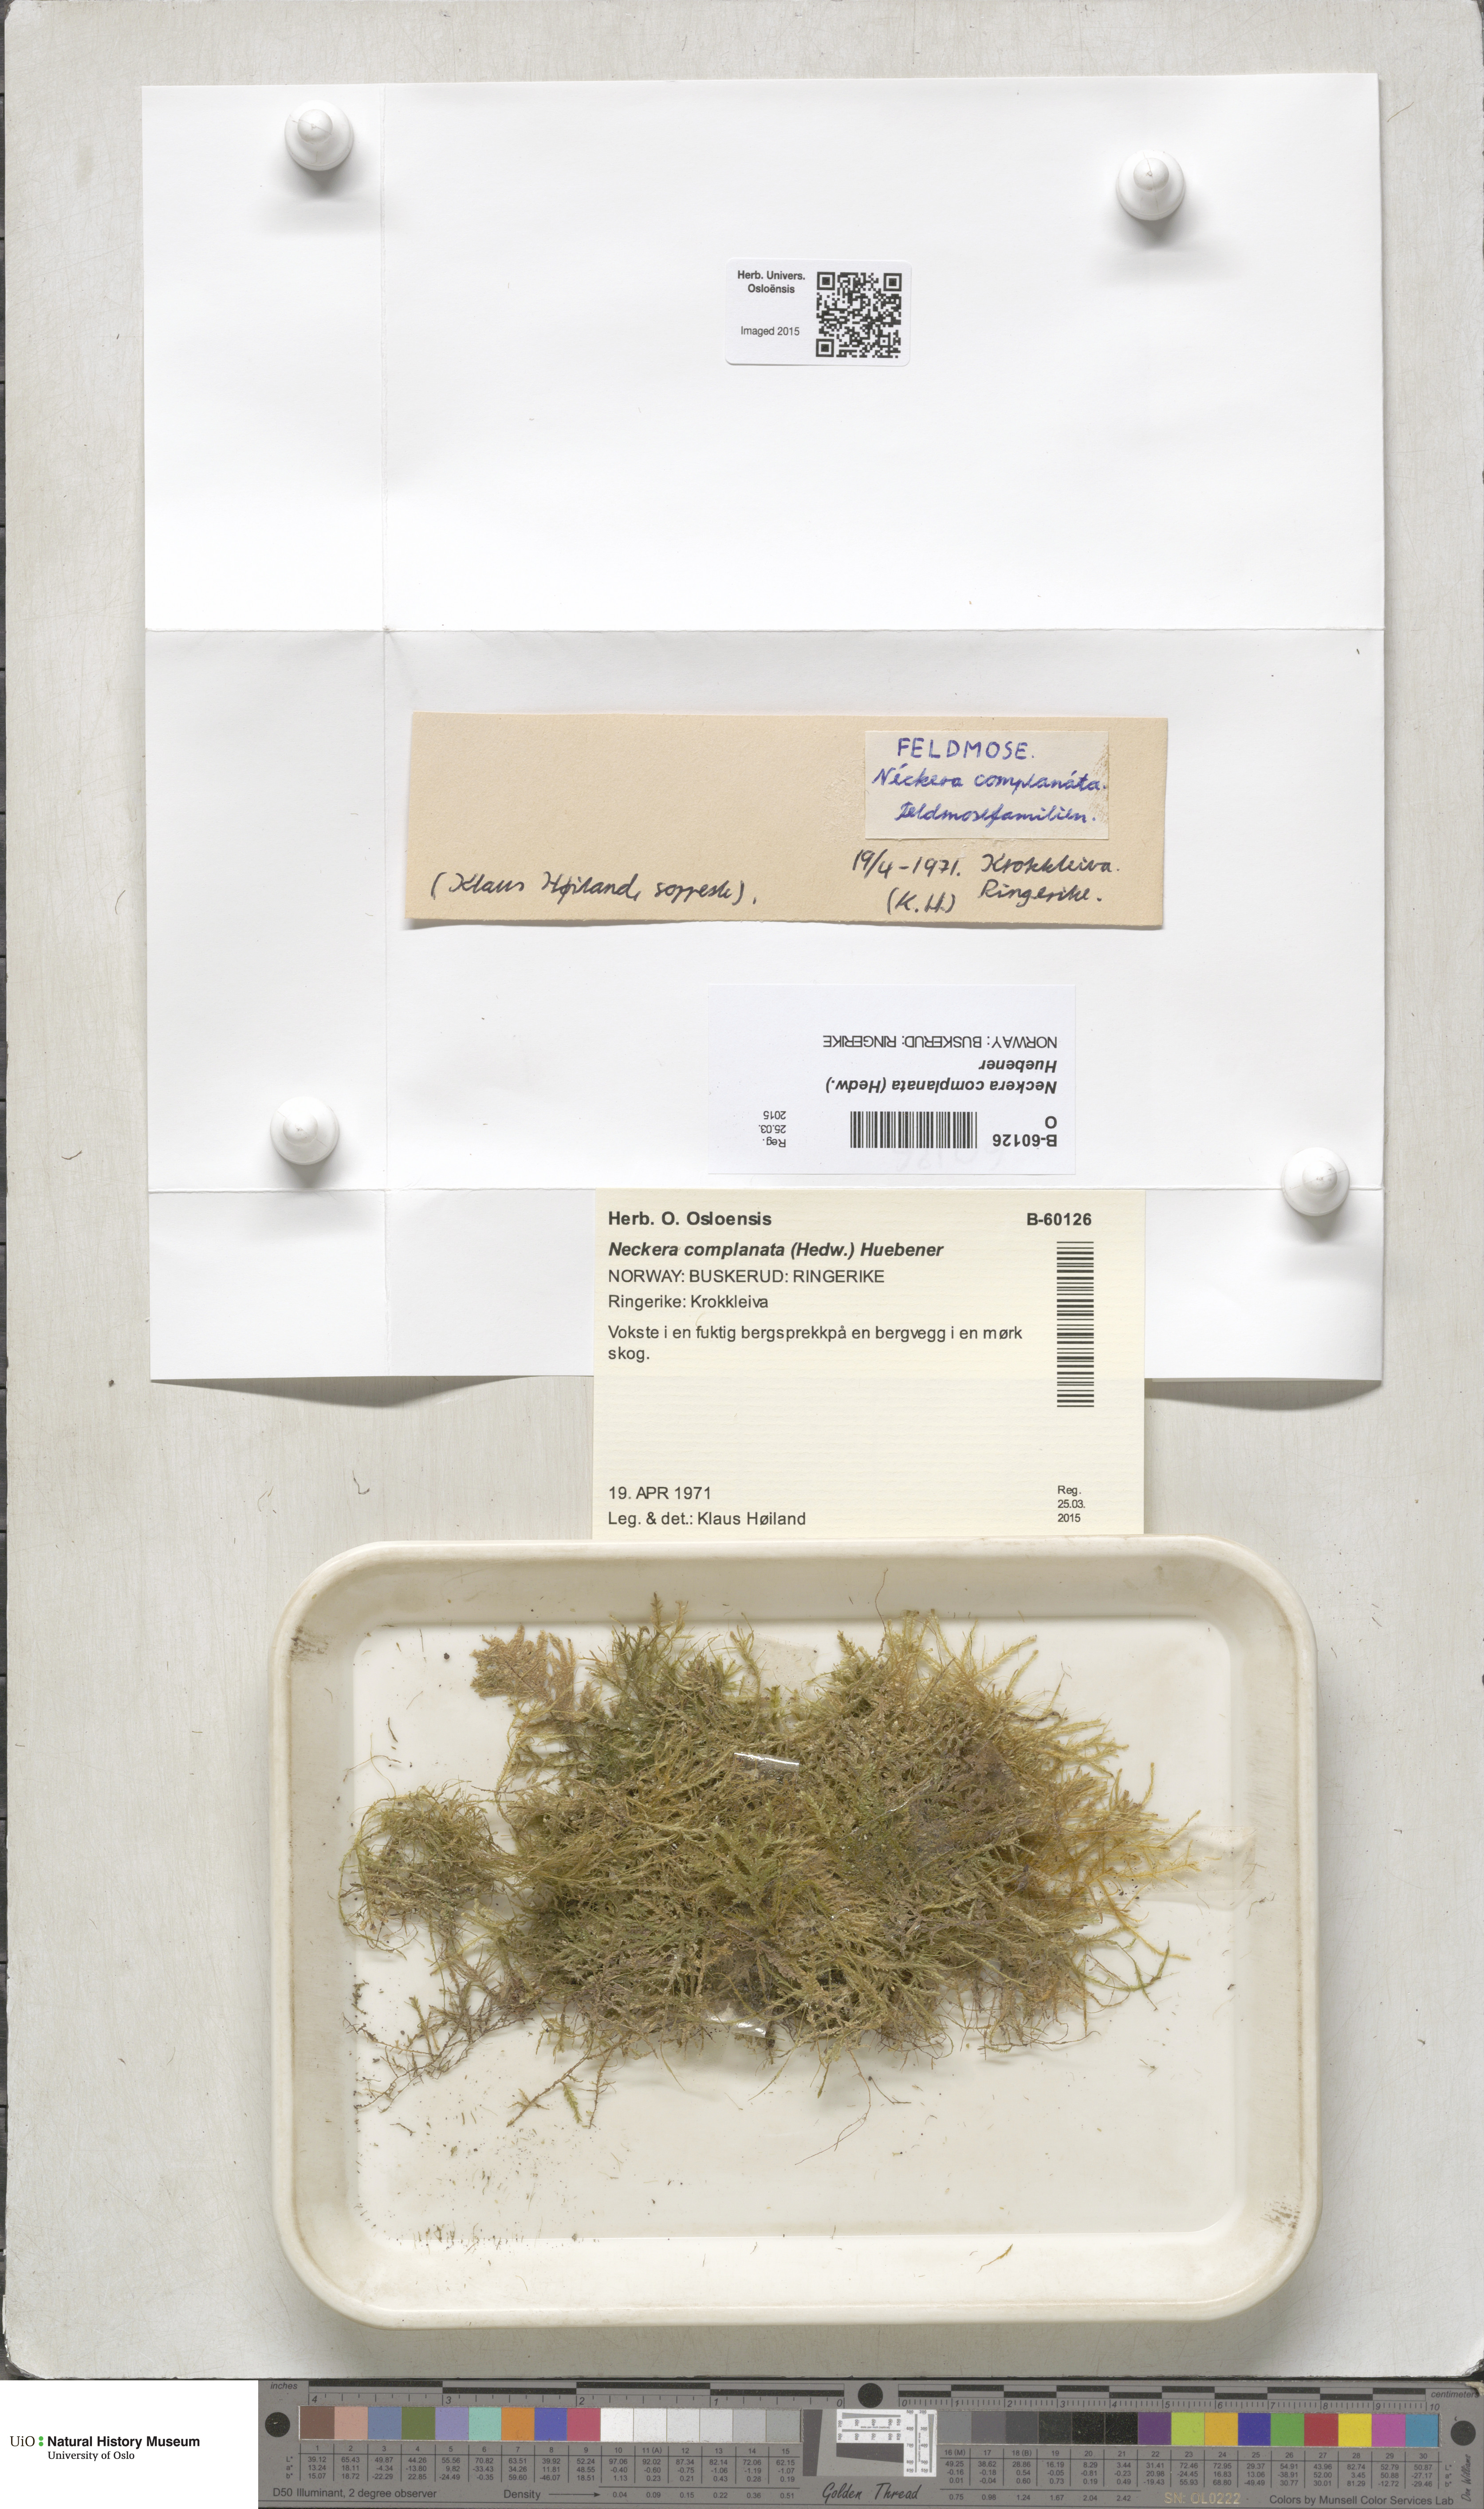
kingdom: Plantae
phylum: Bryophyta
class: Bryopsida
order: Hypnales
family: Neckeraceae
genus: Alleniella
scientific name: Alleniella complanata
